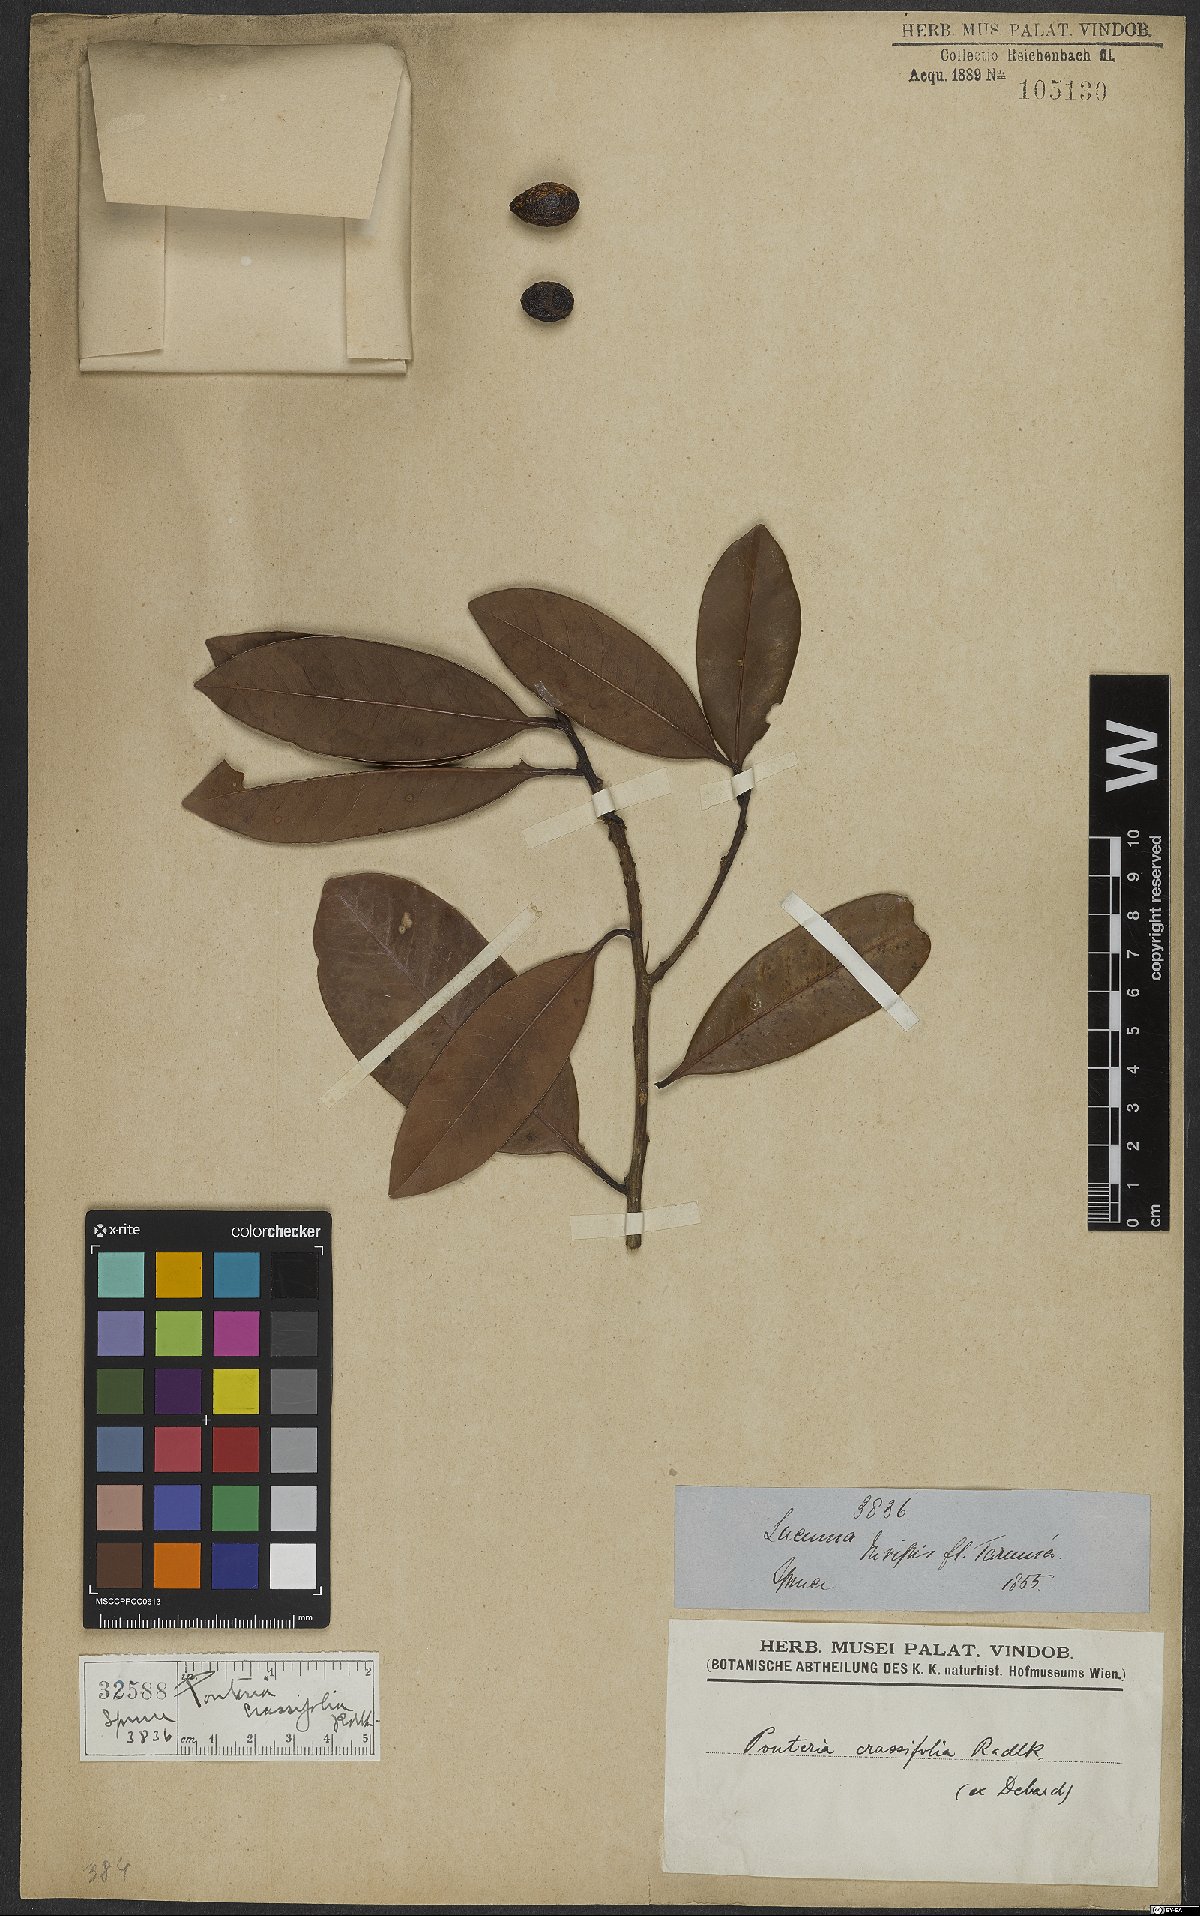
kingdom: Plantae
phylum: Tracheophyta
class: Magnoliopsida
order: Ericales
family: Sapotaceae
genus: Pouteria
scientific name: Pouteria elegans
